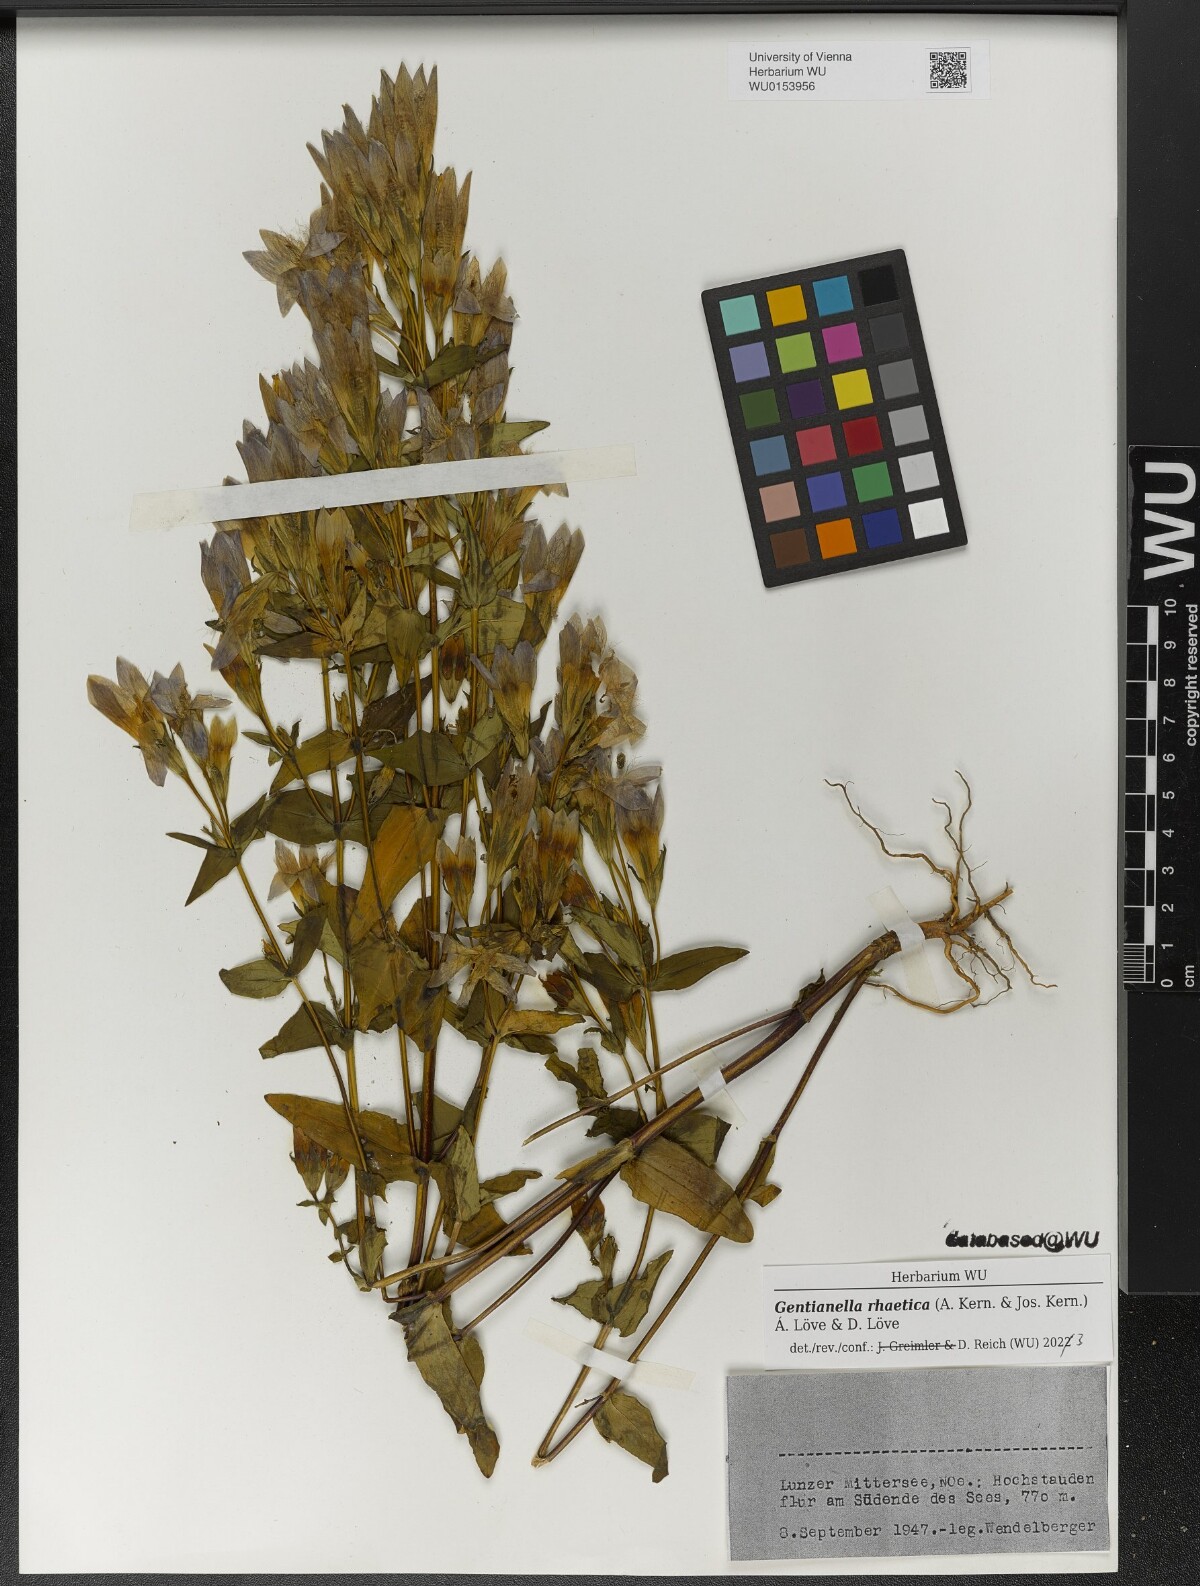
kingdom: Plantae
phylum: Tracheophyta
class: Magnoliopsida
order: Gentianales
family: Gentianaceae
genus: Gentianella
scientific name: Gentianella rhaetica
